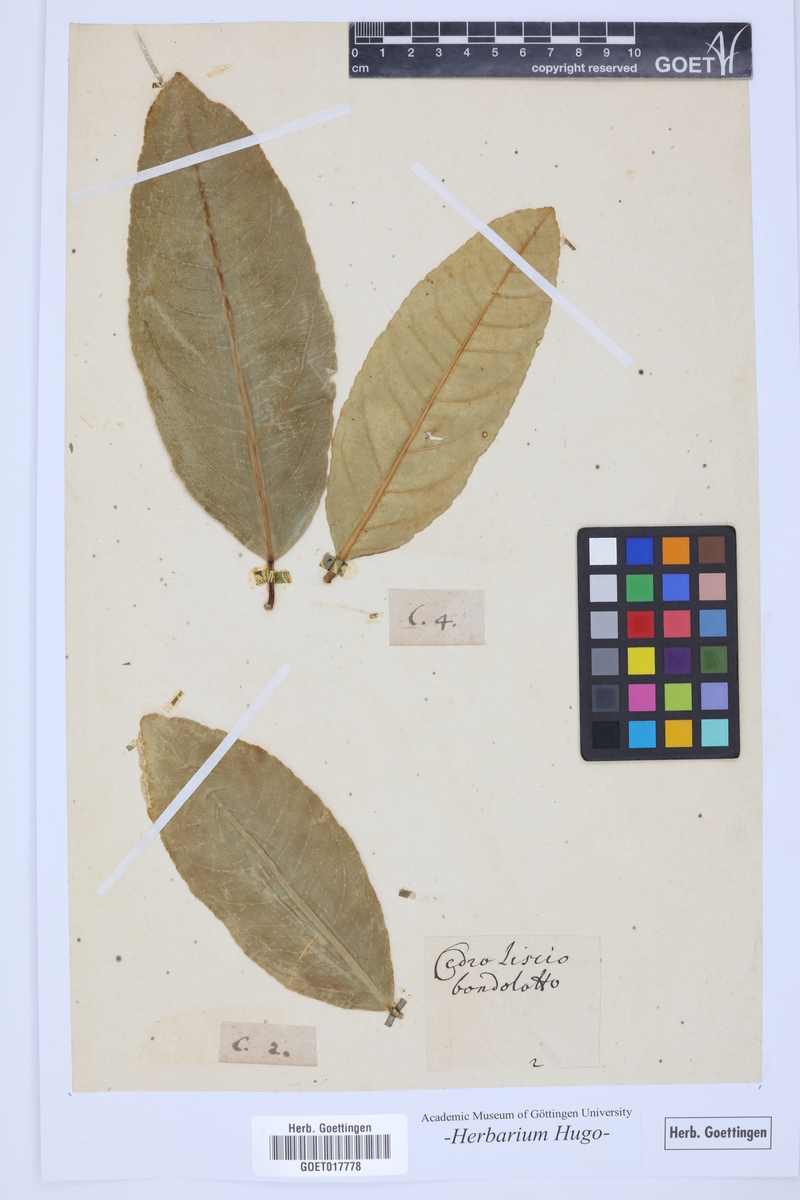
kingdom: Plantae
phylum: Tracheophyta
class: Magnoliopsida
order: Sapindales
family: Rutaceae
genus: Citrus
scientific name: Citrus
